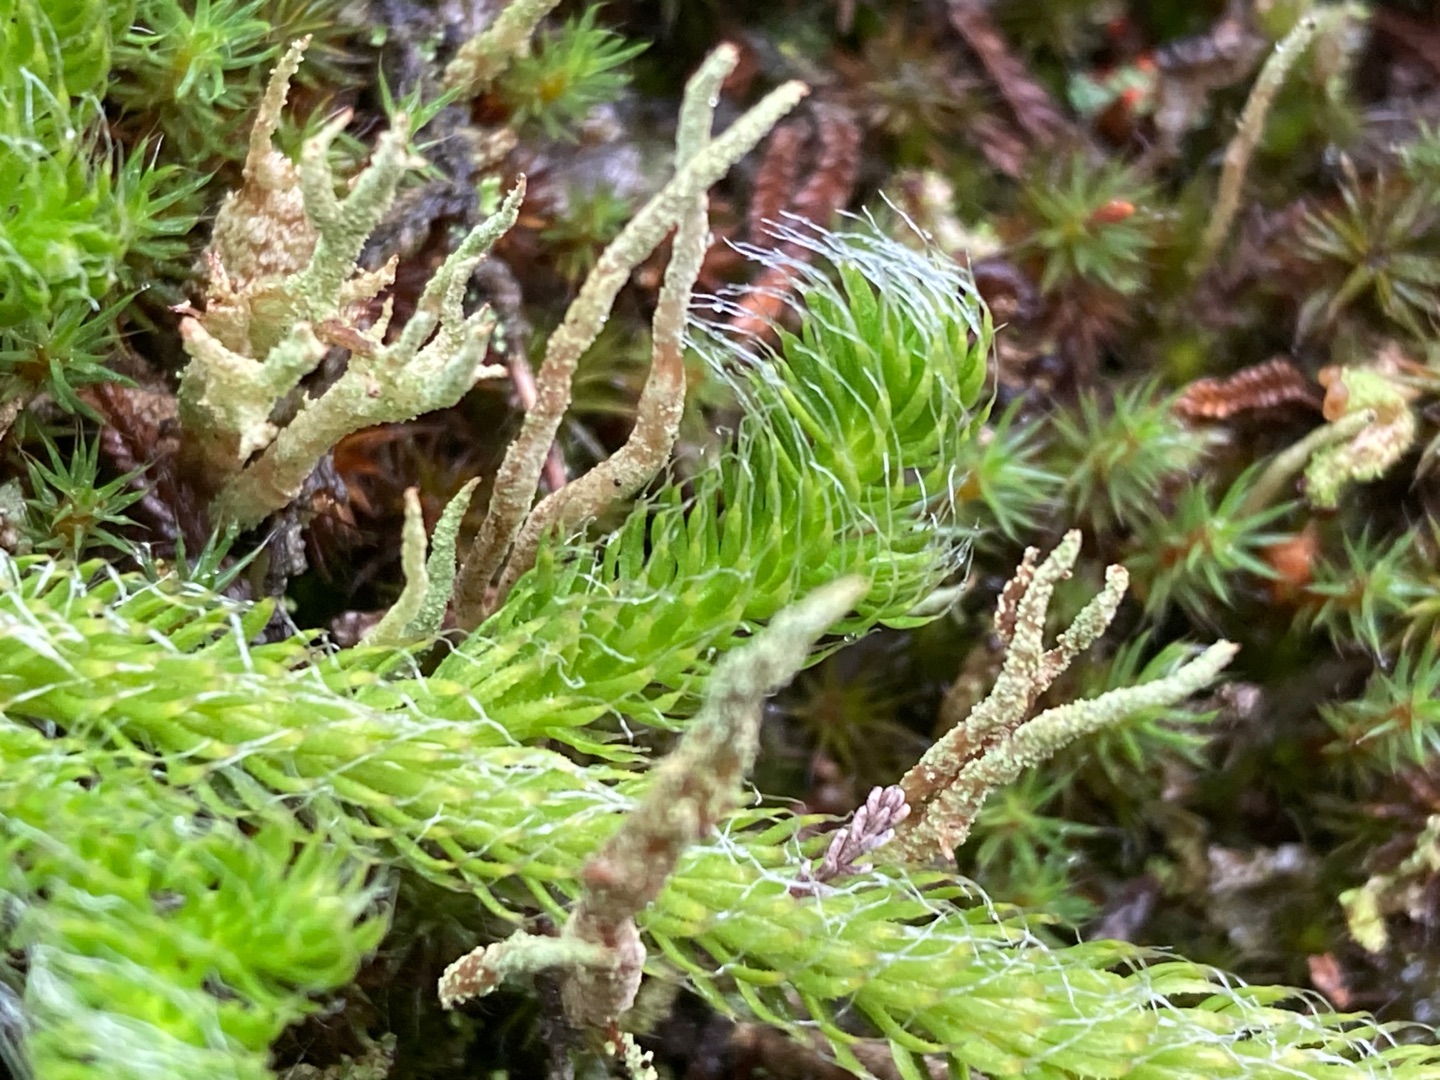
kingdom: Plantae
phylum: Tracheophyta
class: Lycopodiopsida
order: Lycopodiales
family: Lycopodiaceae
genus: Lycopodium
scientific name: Lycopodium clavatum
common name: Almindelig ulvefod
